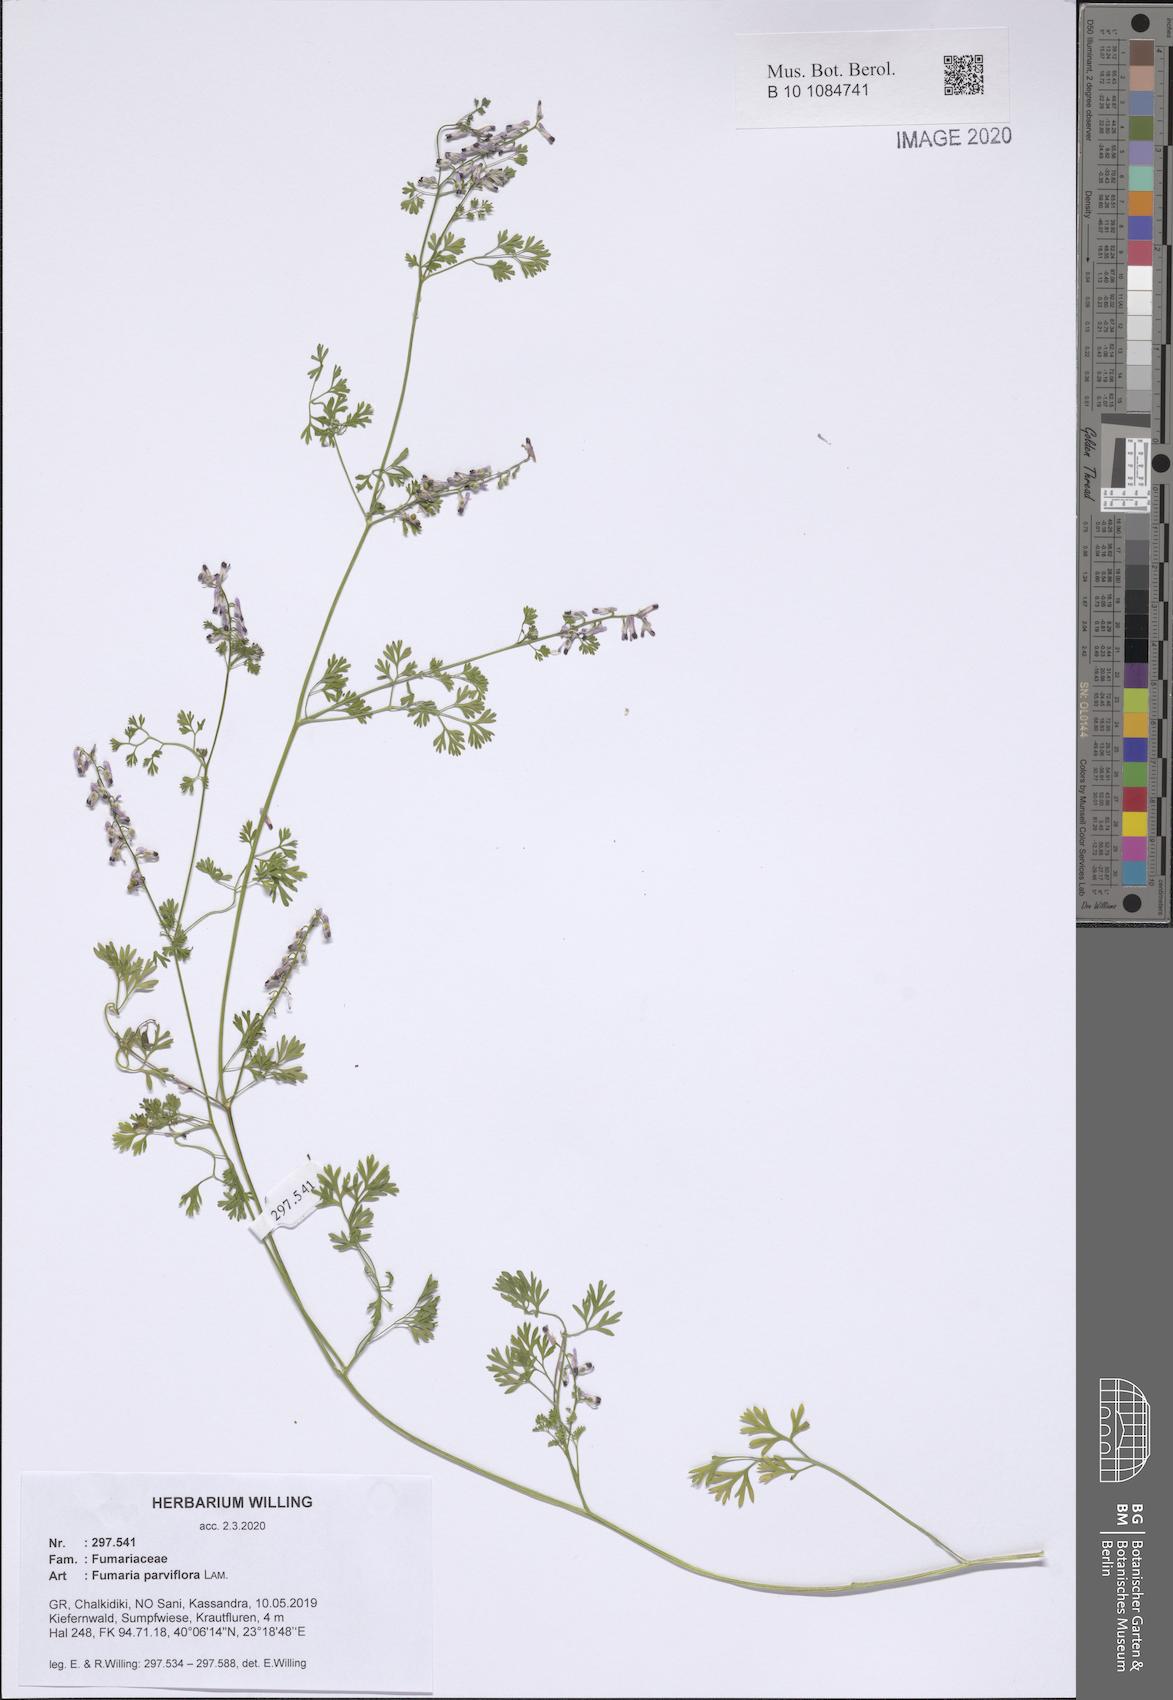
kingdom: Plantae
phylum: Tracheophyta
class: Magnoliopsida
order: Ranunculales
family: Papaveraceae
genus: Fumaria
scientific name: Fumaria parviflora
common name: Fine-leaved fumitory
